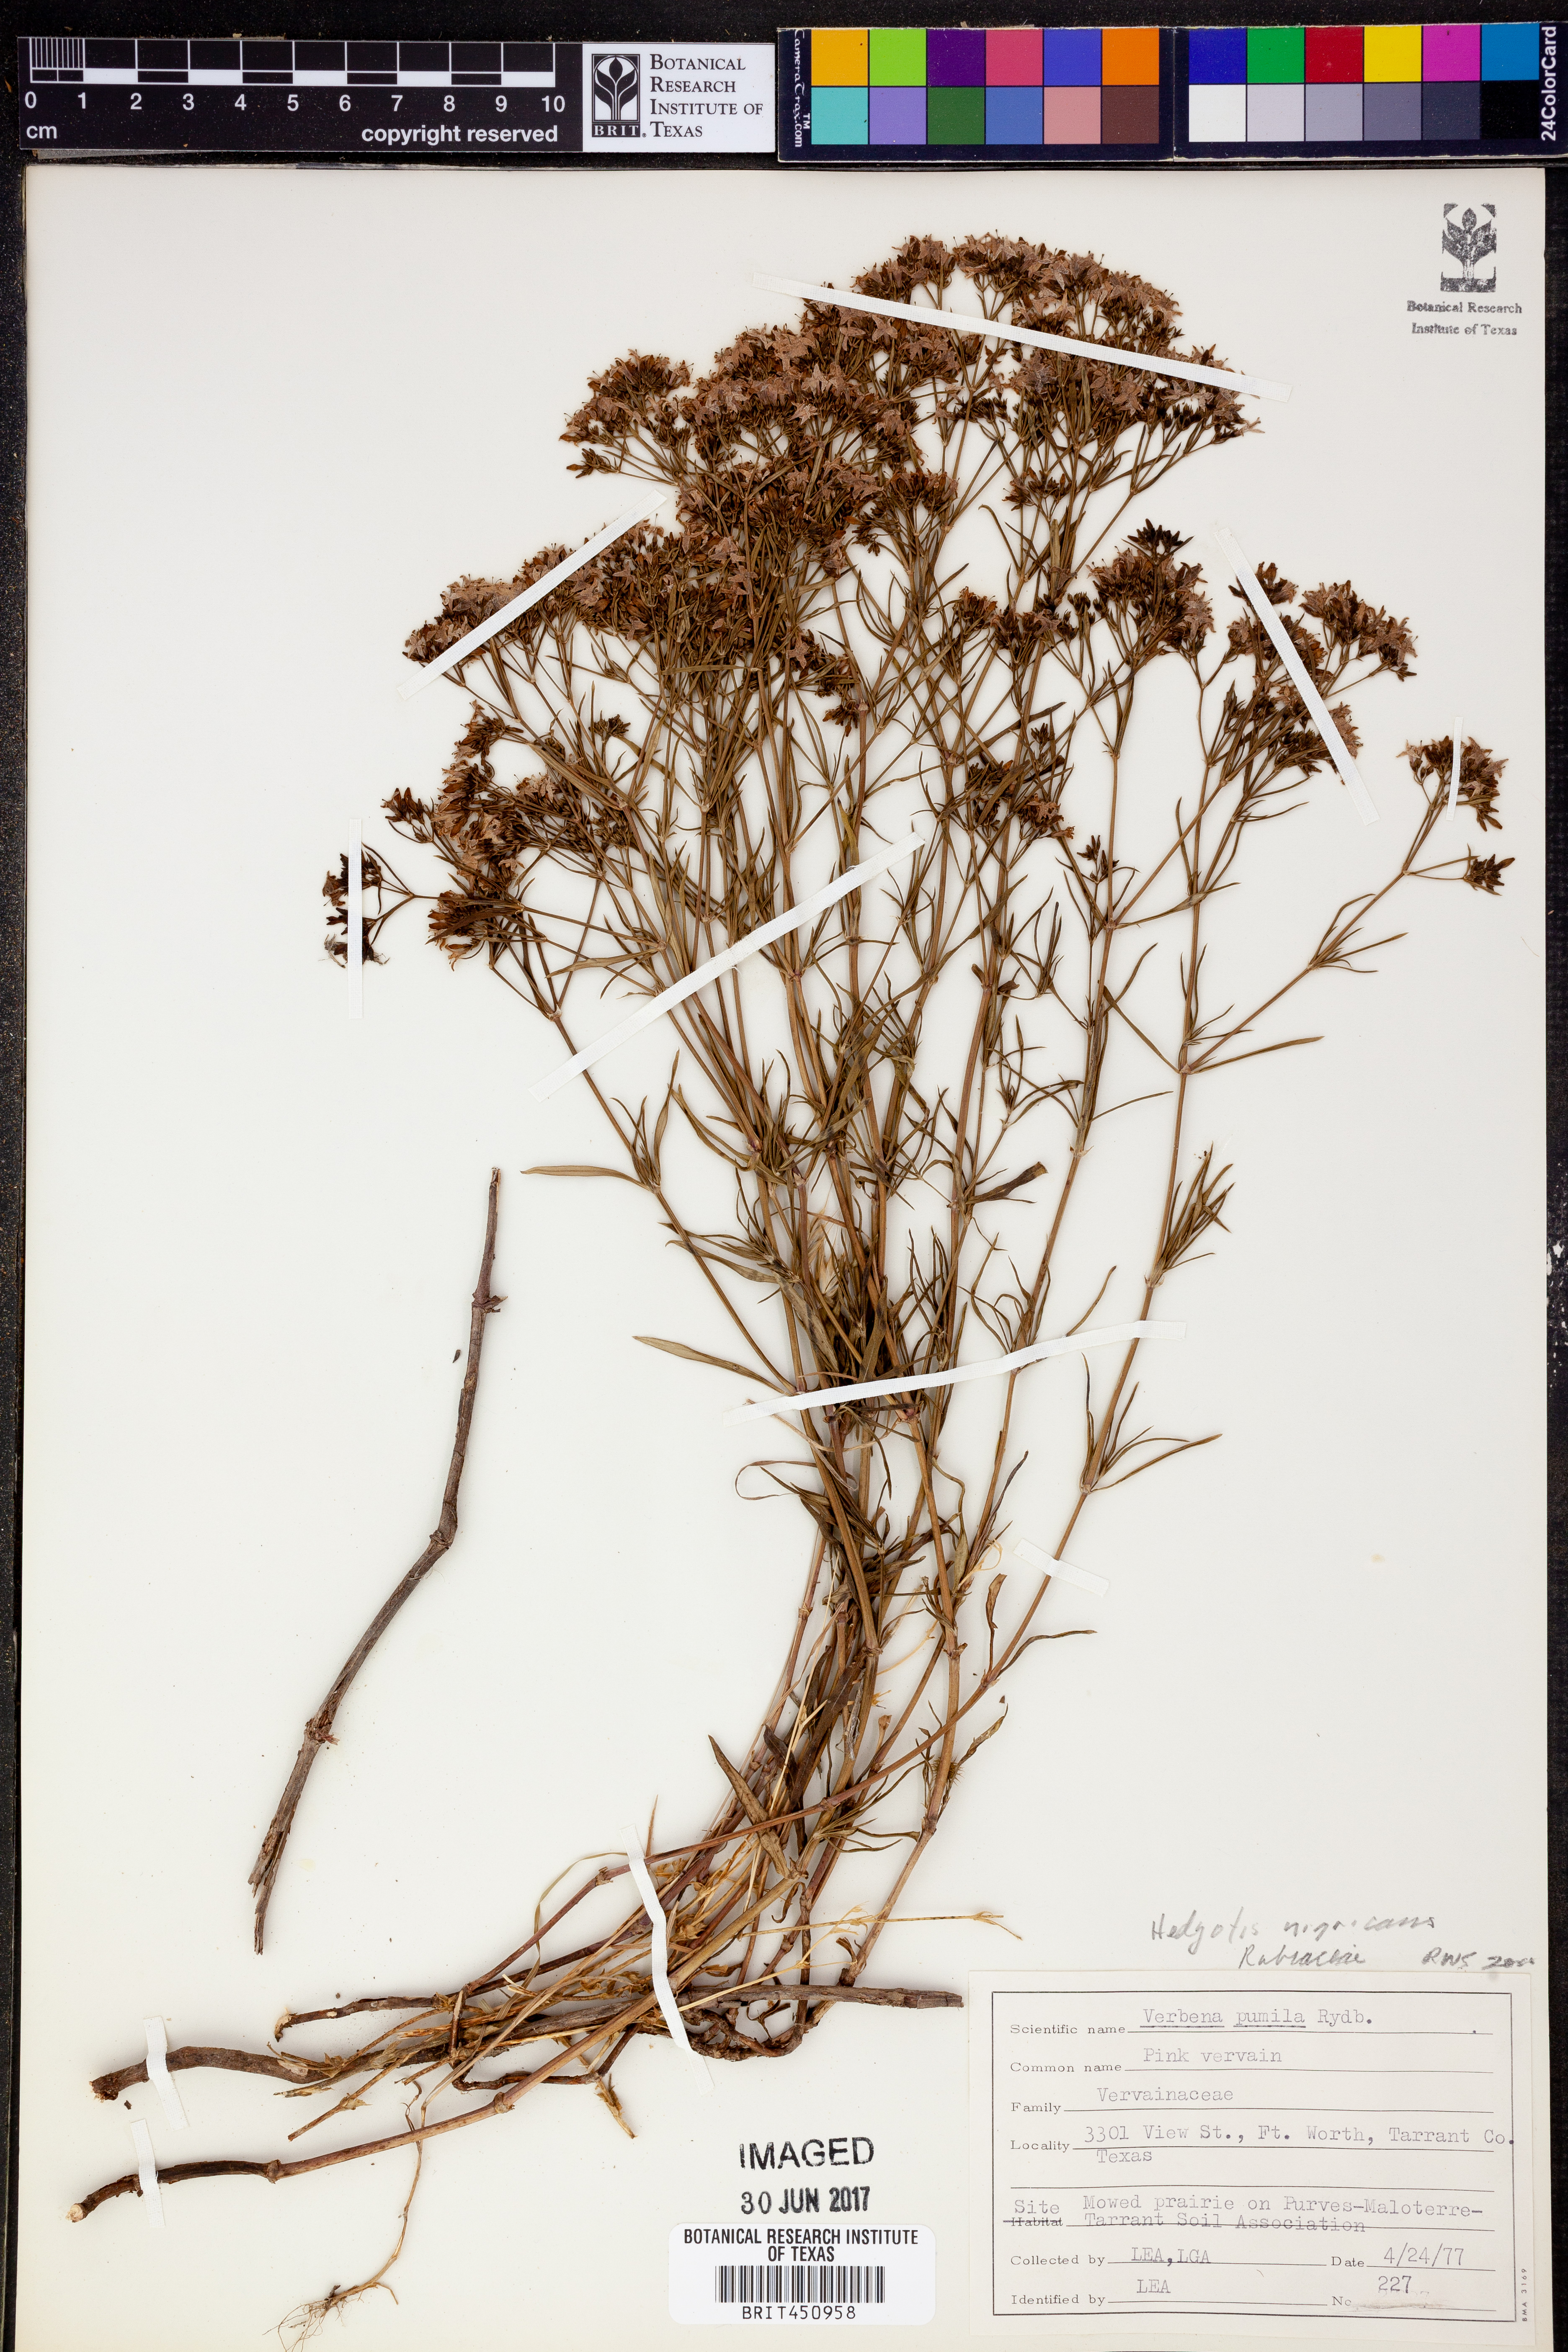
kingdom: Plantae
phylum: Tracheophyta
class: Magnoliopsida
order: Gentianales
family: Rubiaceae
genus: Stenaria
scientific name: Stenaria nigricans
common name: Diamondflowers
